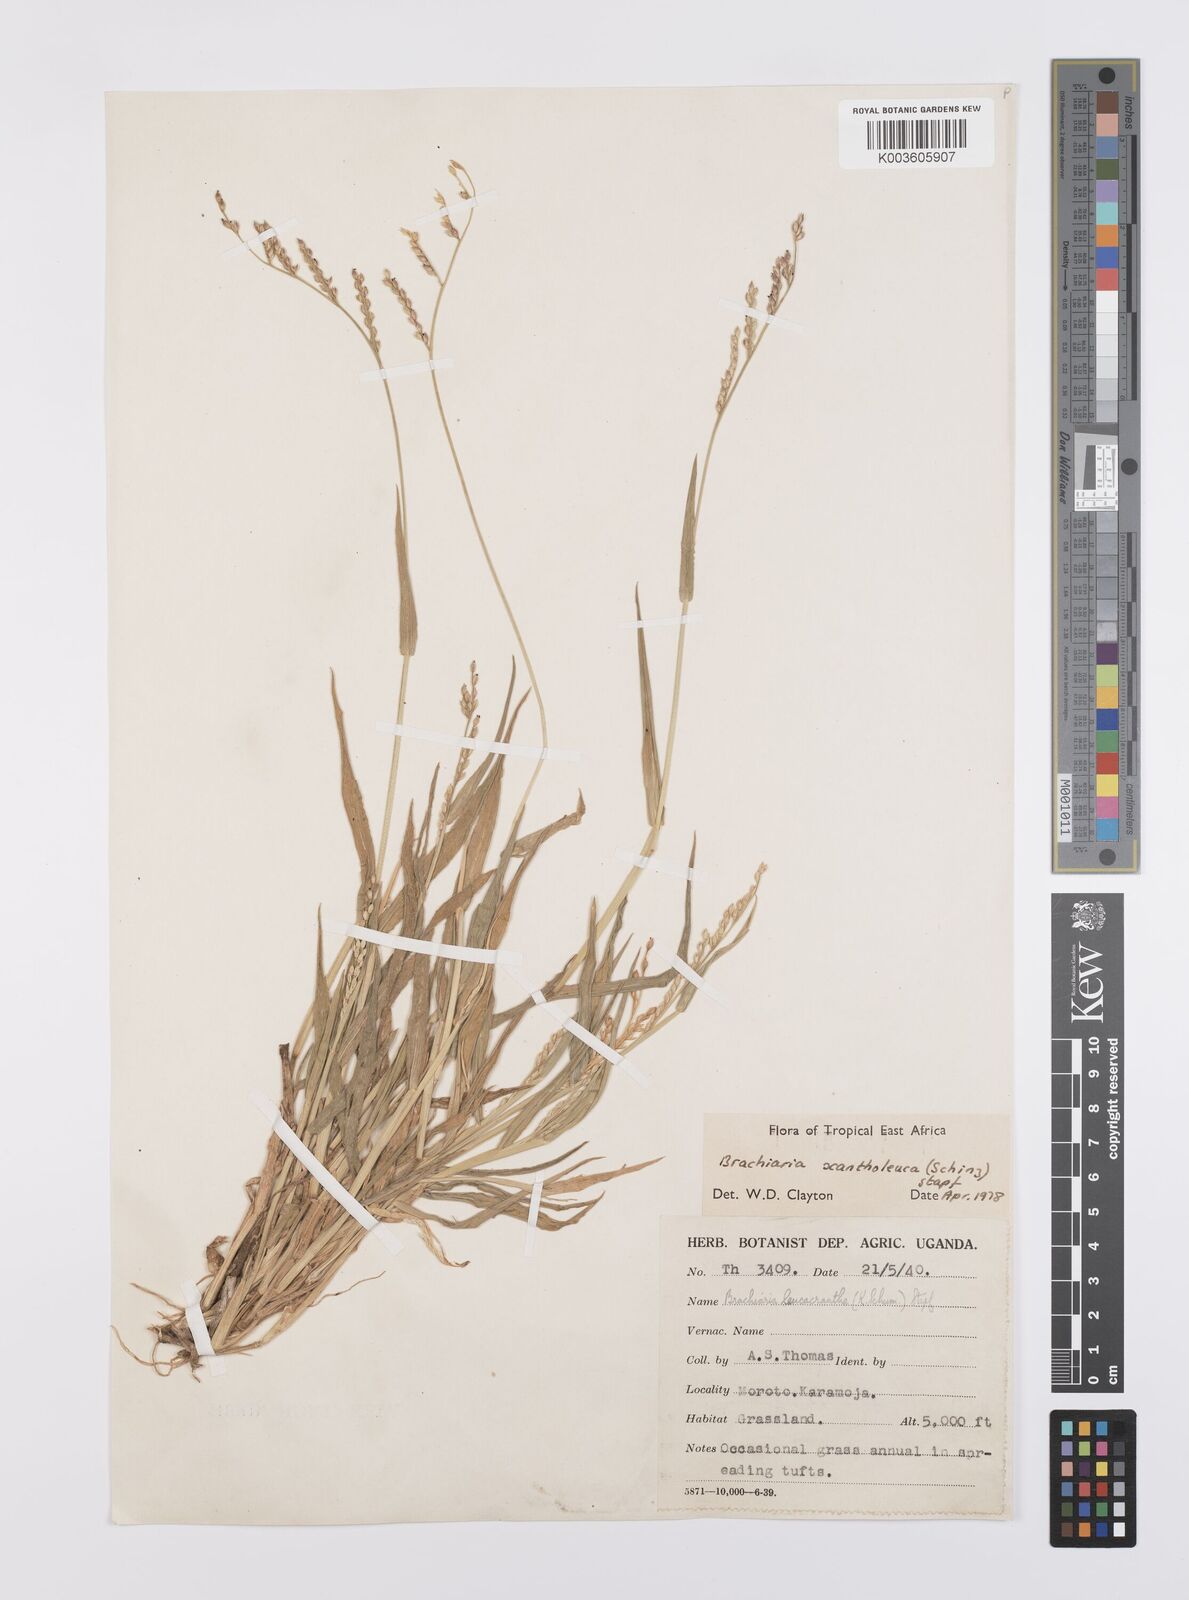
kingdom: Plantae
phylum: Tracheophyta
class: Liliopsida
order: Poales
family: Poaceae
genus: Urochloa
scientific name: Urochloa xantholeuca
